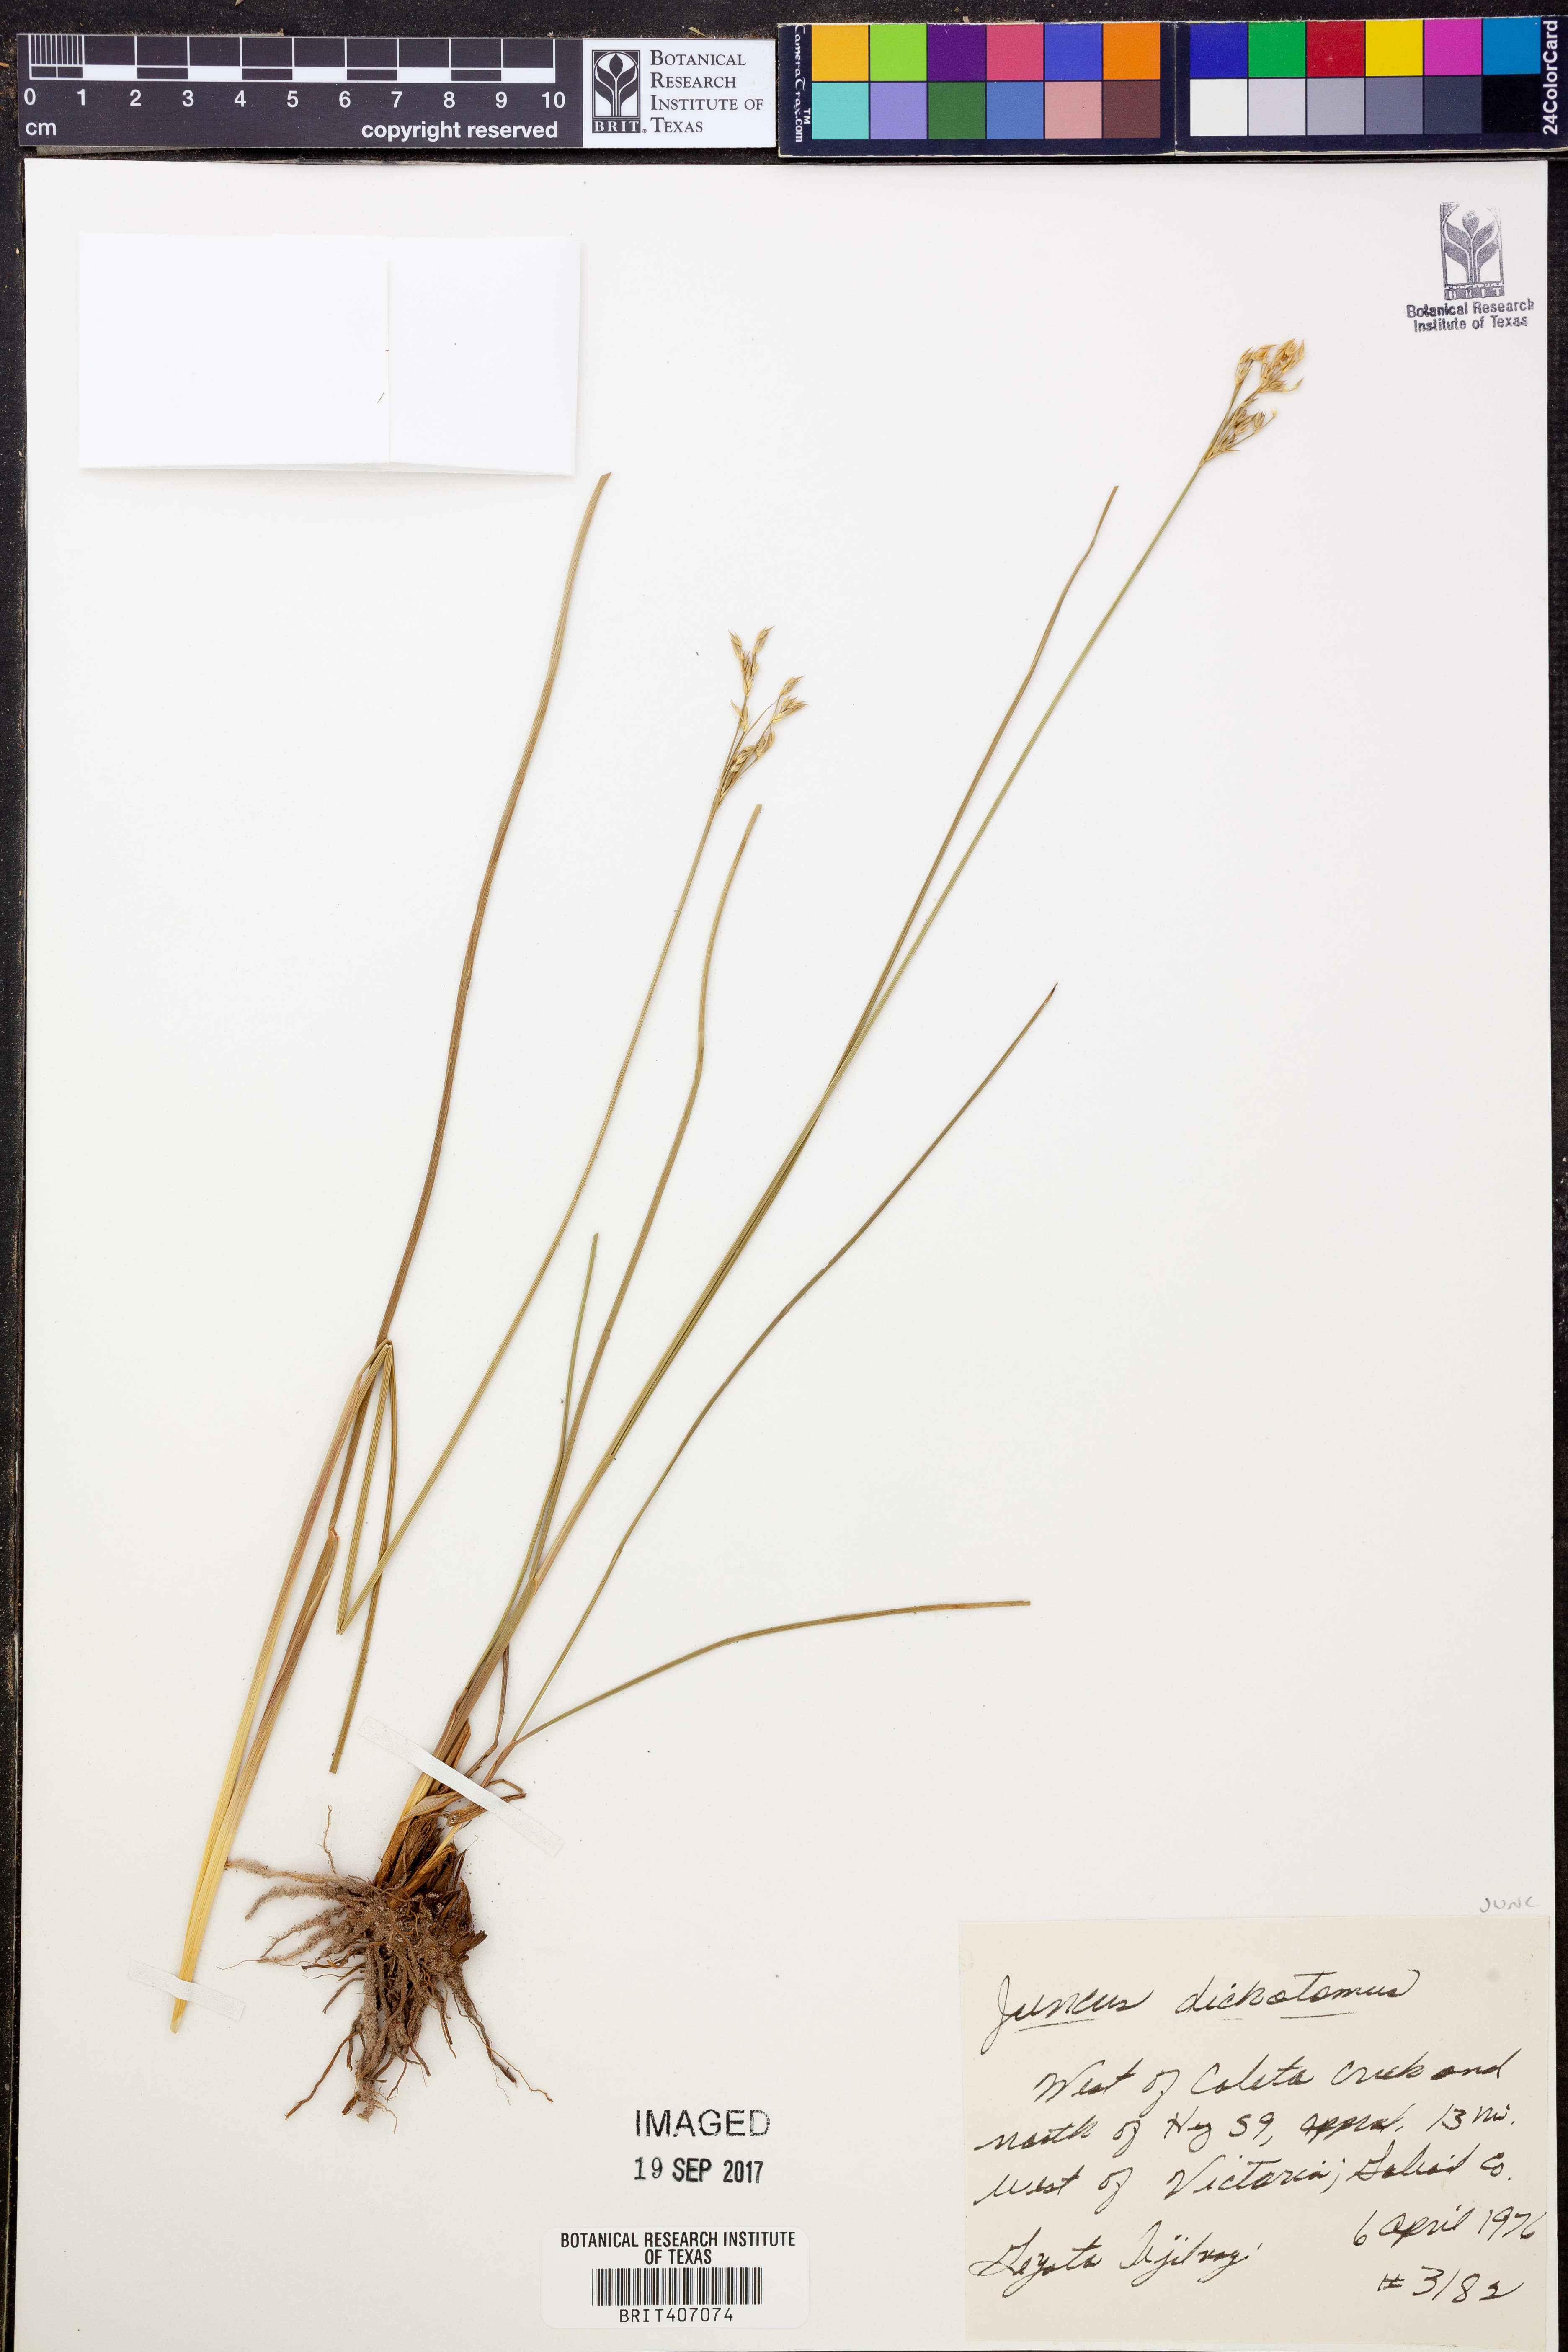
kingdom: Plantae
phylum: Tracheophyta
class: Liliopsida
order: Poales
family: Juncaceae
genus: Juncus
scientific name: Juncus dichotomus
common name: Forked rush
